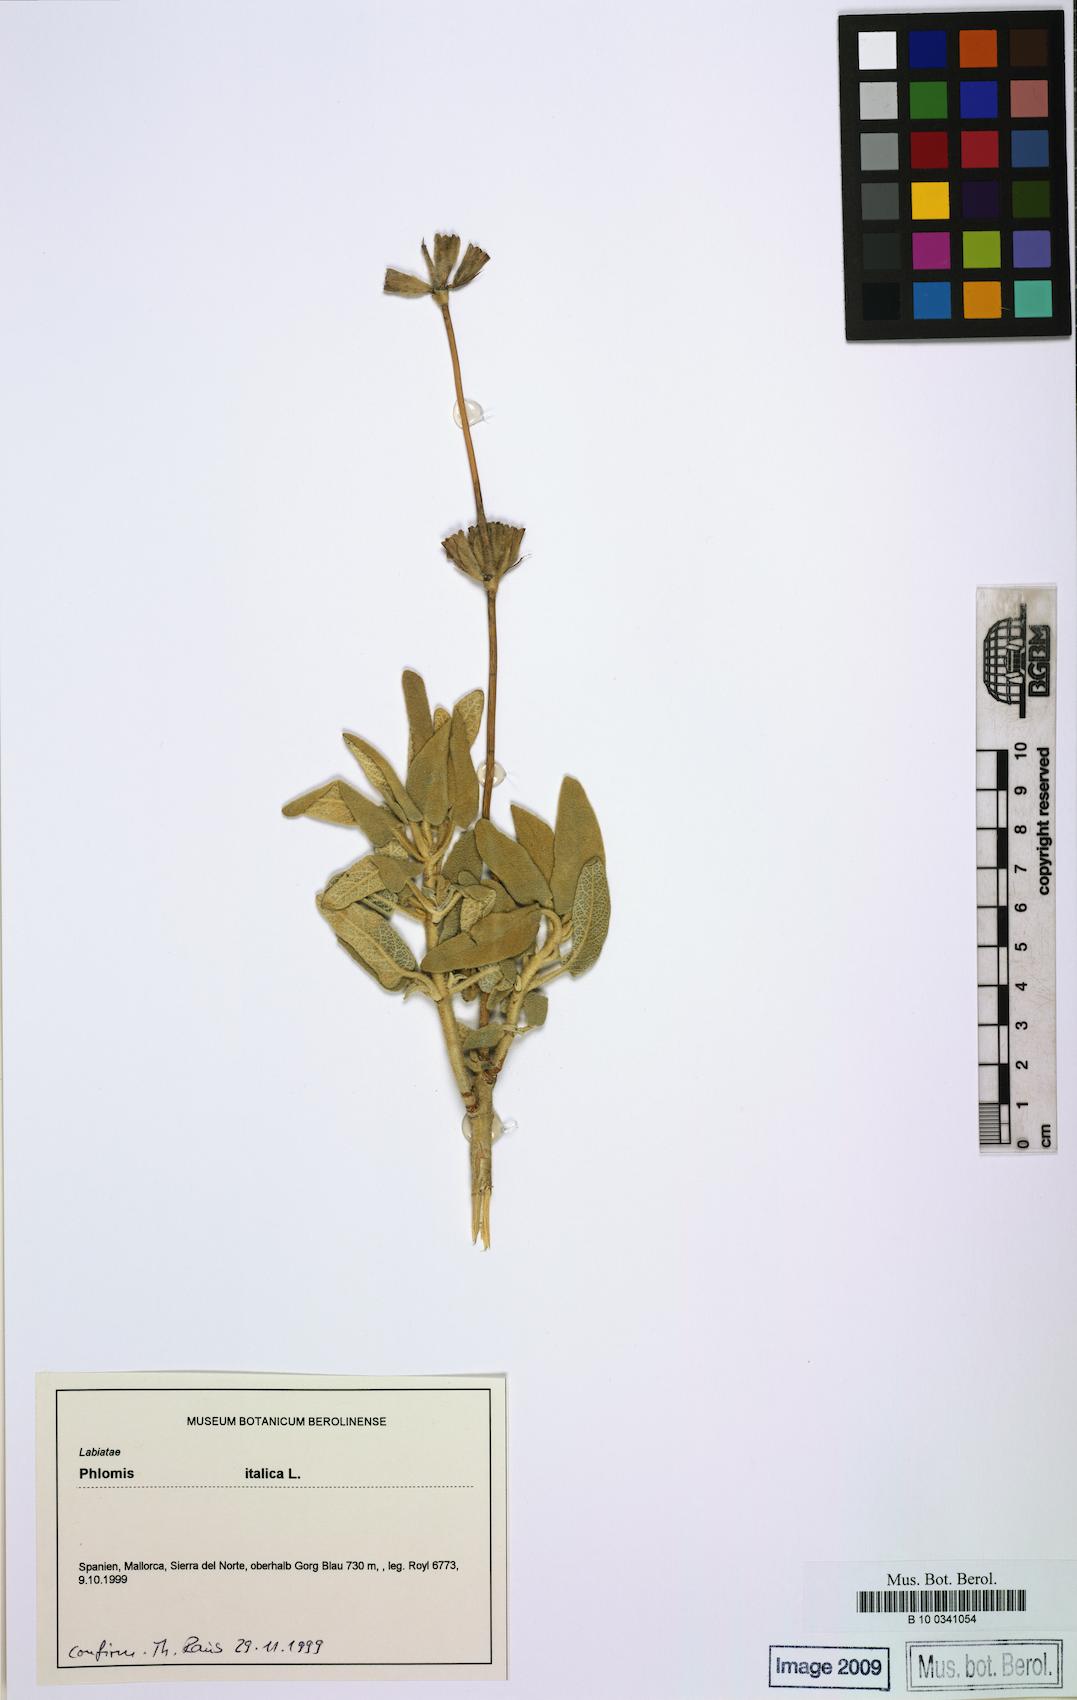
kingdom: Plantae
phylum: Tracheophyta
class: Magnoliopsida
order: Lamiales
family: Lamiaceae
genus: Phlomis
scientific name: Phlomis italica
